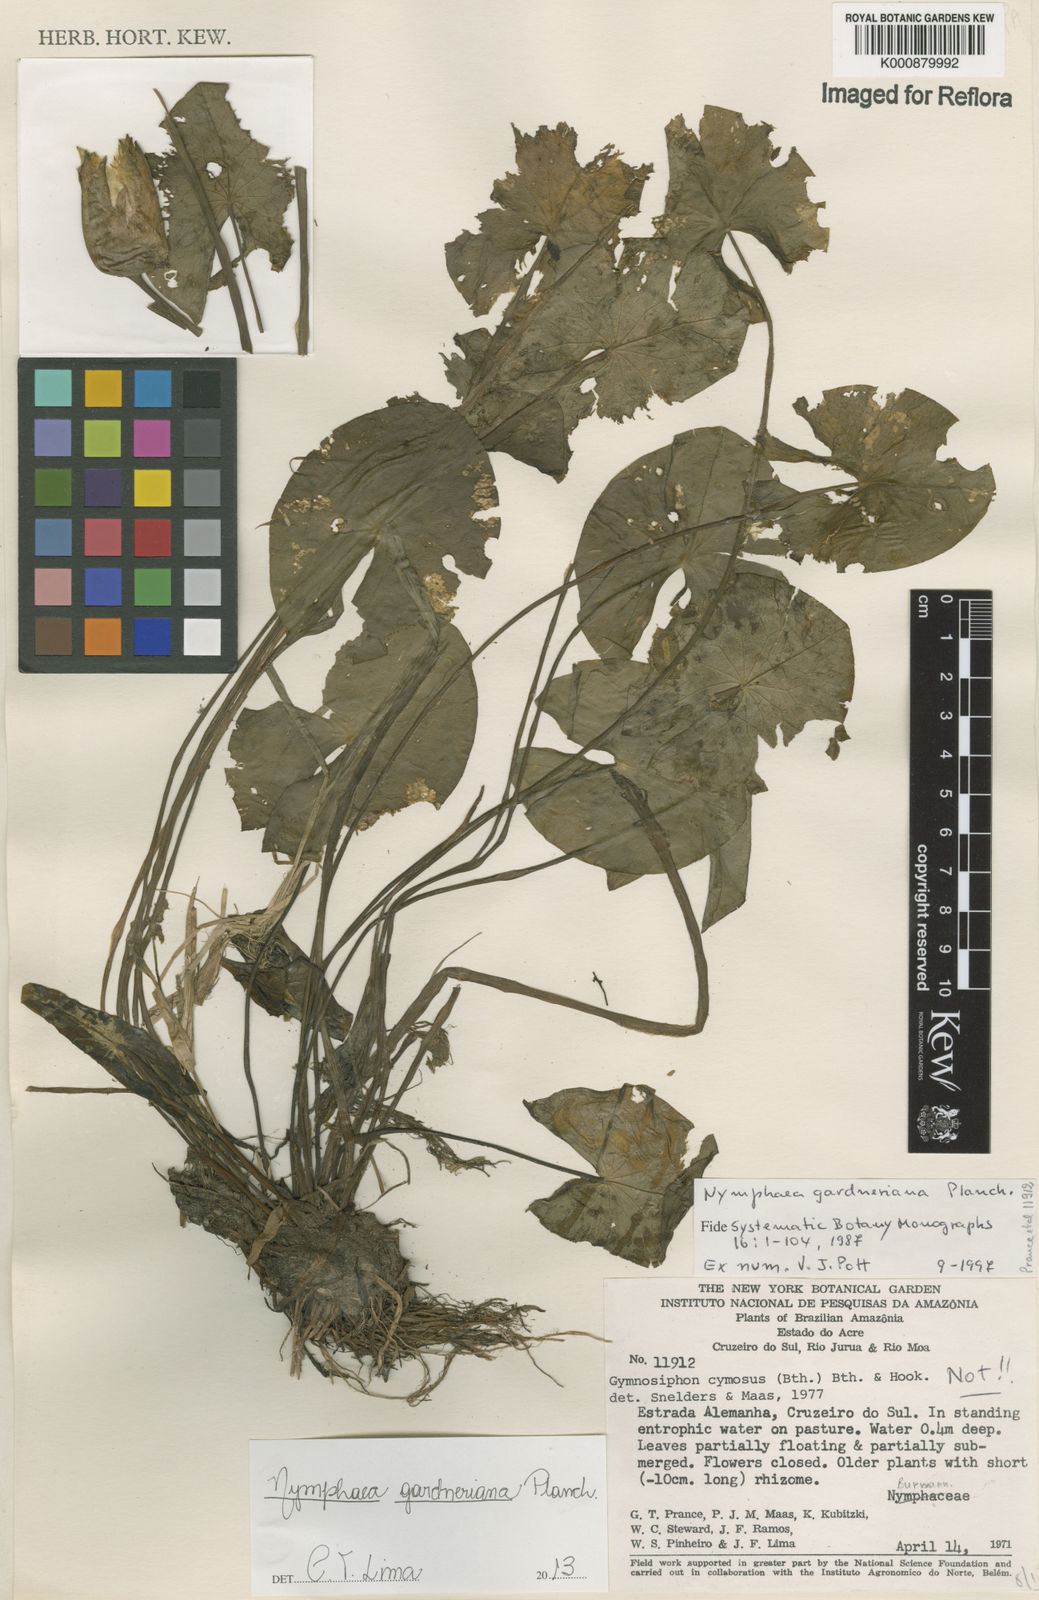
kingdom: Plantae
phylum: Tracheophyta
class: Magnoliopsida
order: Nymphaeales
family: Nymphaeaceae
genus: Nymphaea
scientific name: Nymphaea gardneriana
